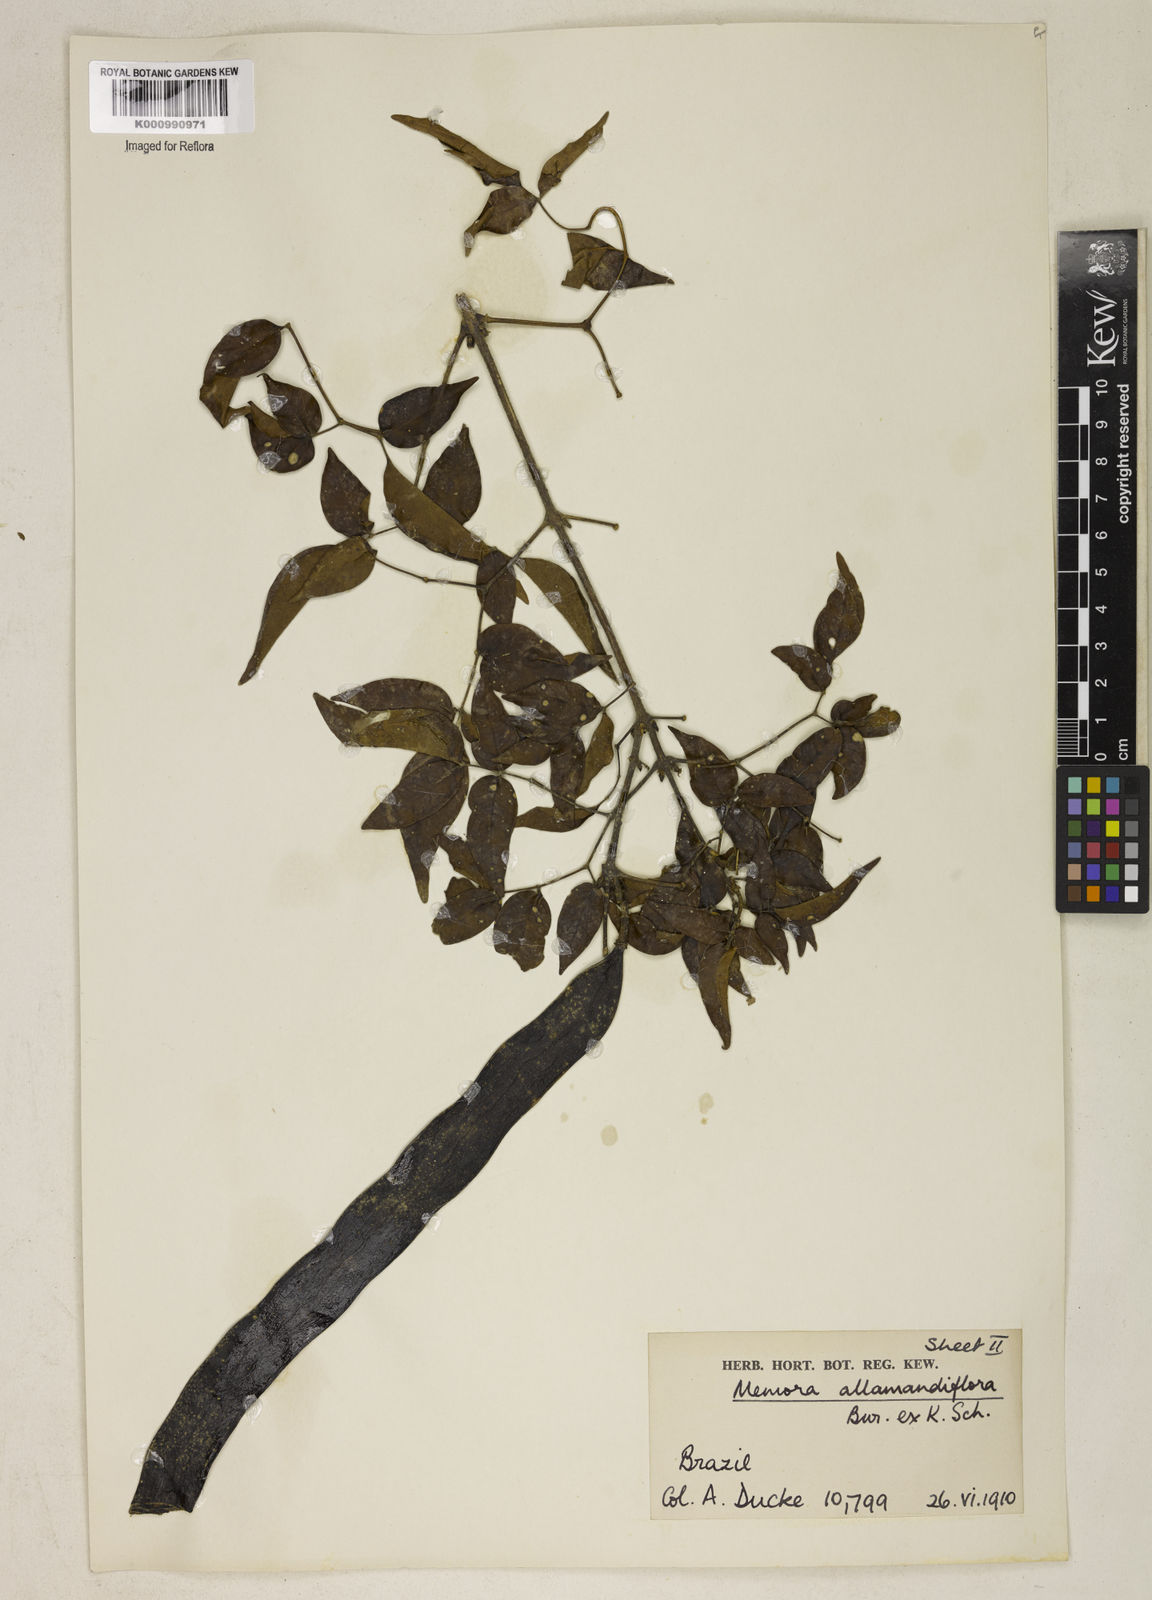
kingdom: Plantae
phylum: Tracheophyta
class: Magnoliopsida
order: Lamiales
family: Bignoniaceae
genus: Adenocalymma
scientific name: Adenocalymma
